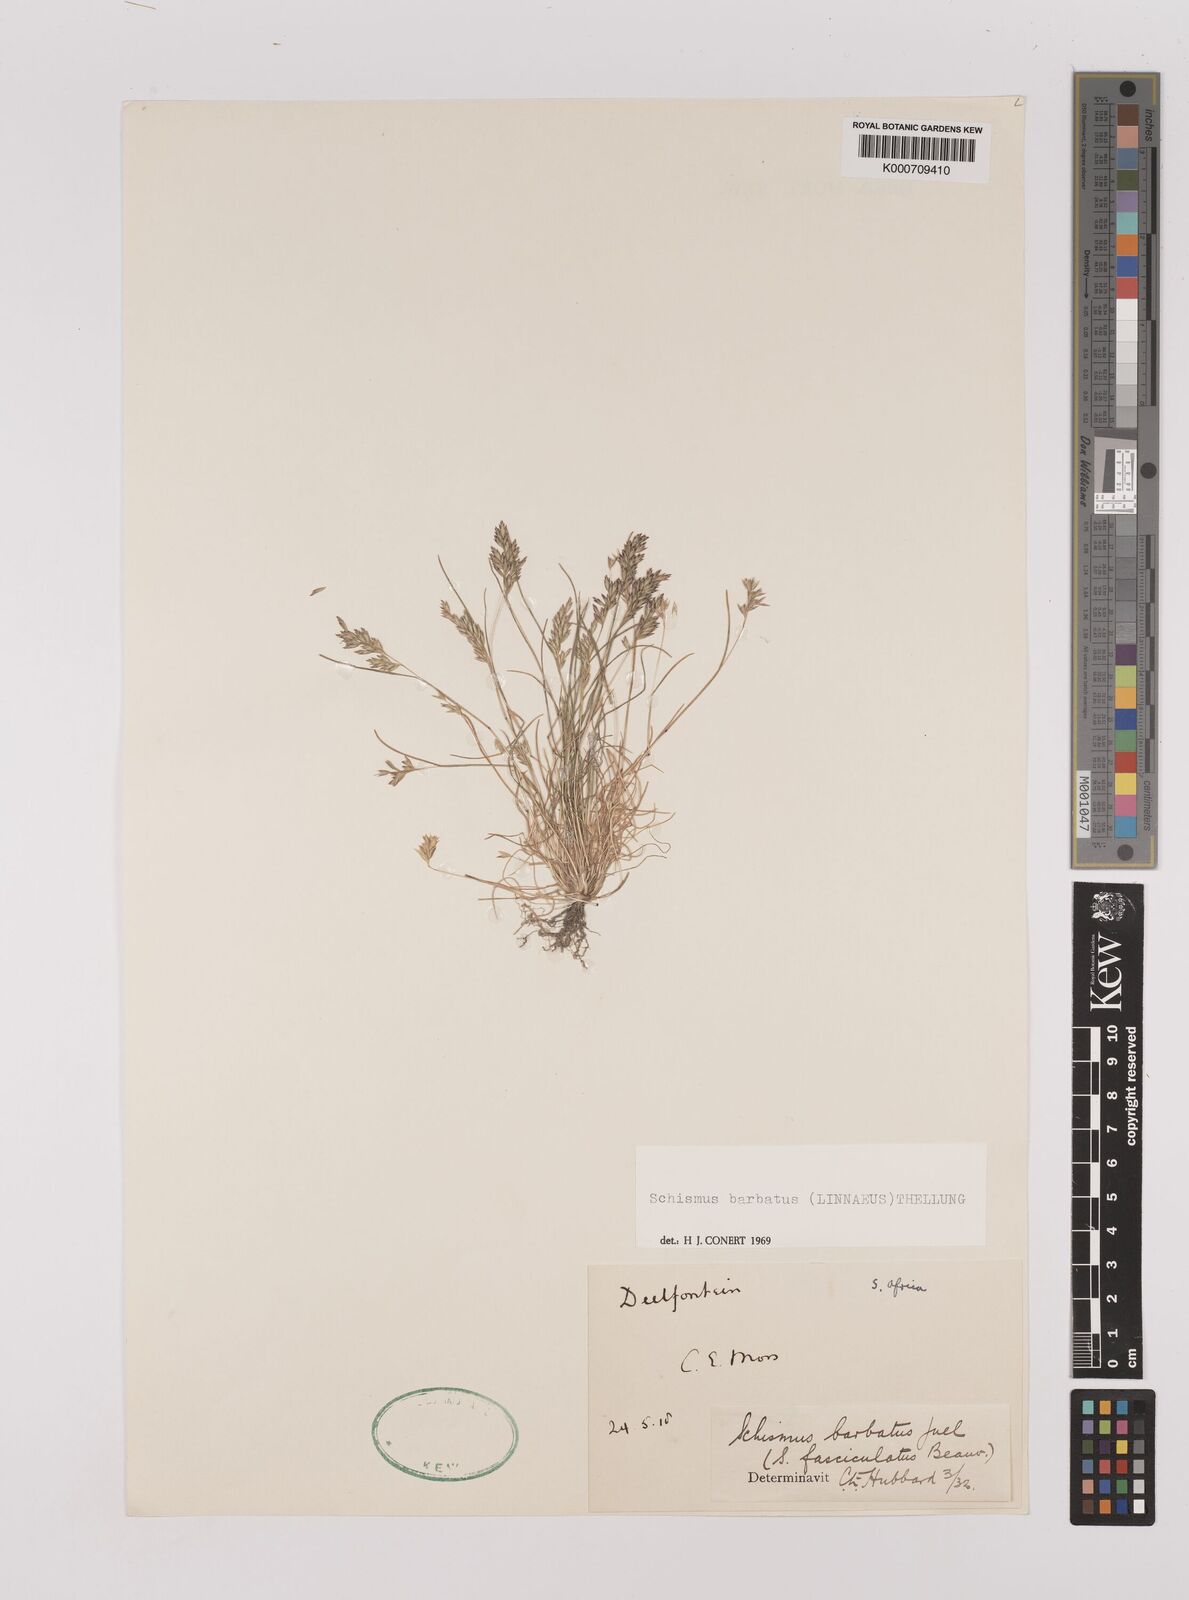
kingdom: Plantae
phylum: Tracheophyta
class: Liliopsida
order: Poales
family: Poaceae
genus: Schismus
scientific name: Schismus barbatus
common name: Kelch-grass
